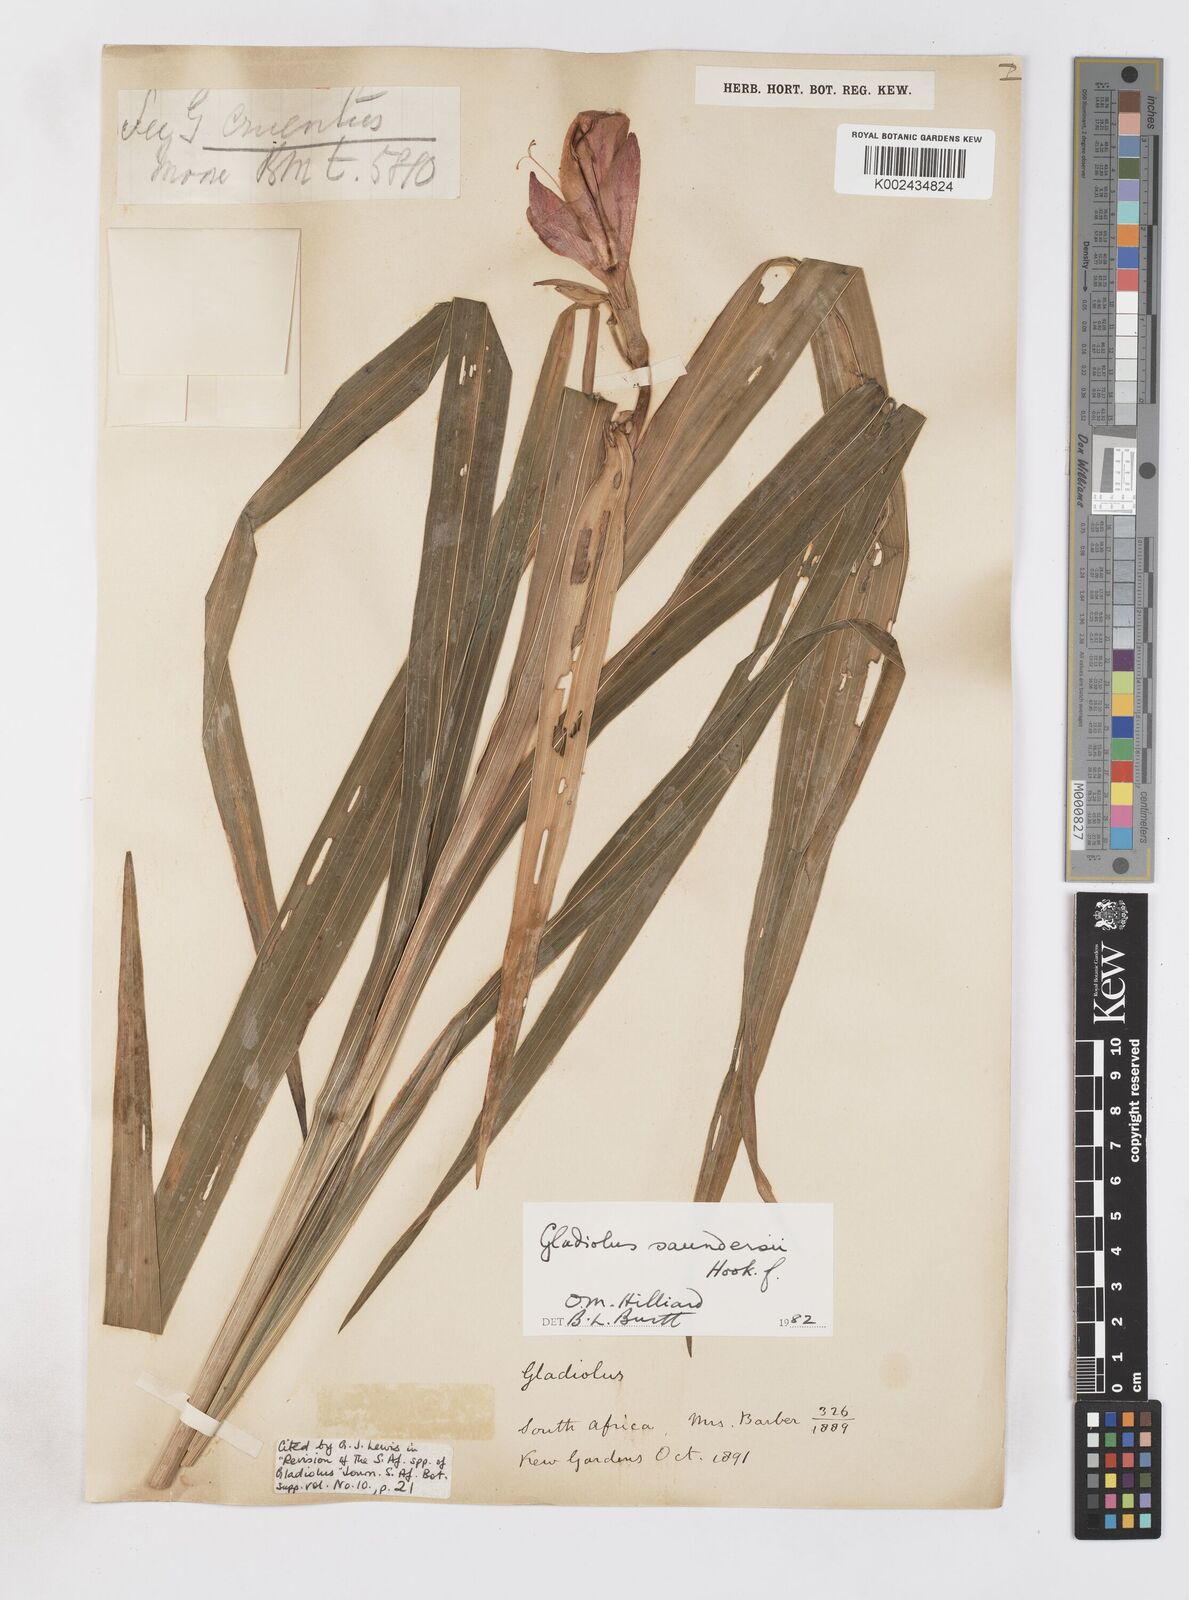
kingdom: Plantae
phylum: Tracheophyta
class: Liliopsida
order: Asparagales
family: Iridaceae
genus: Gladiolus
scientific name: Gladiolus cruentus
